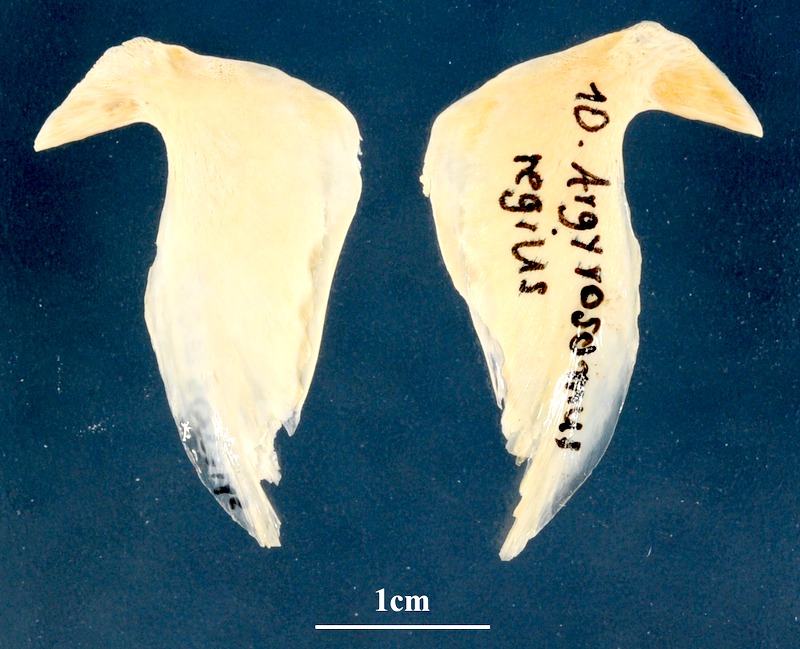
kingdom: Animalia
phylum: Chordata
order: Perciformes
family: Sciaenidae
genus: Argyrosomus
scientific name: Argyrosomus regius
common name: Meagre
